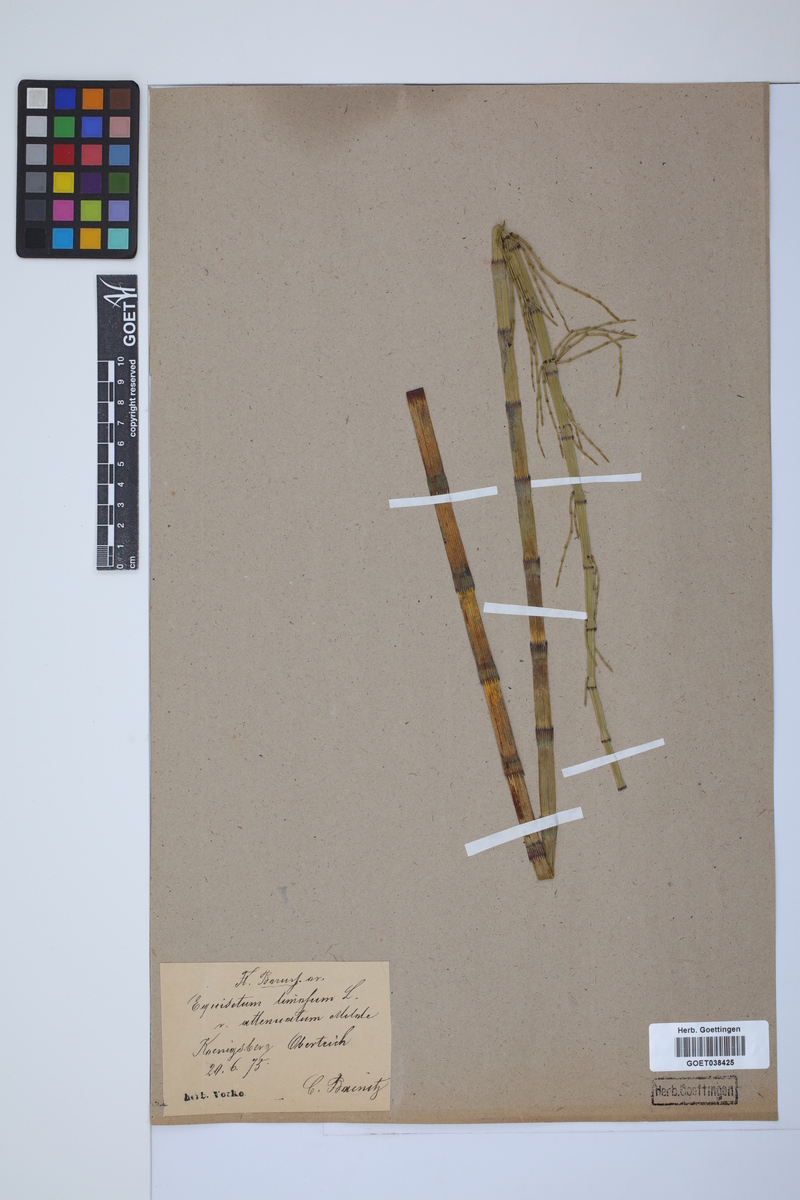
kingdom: Plantae
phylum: Tracheophyta
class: Polypodiopsida
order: Equisetales
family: Equisetaceae
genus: Equisetum
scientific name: Equisetum fluviatile
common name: Water horsetail
